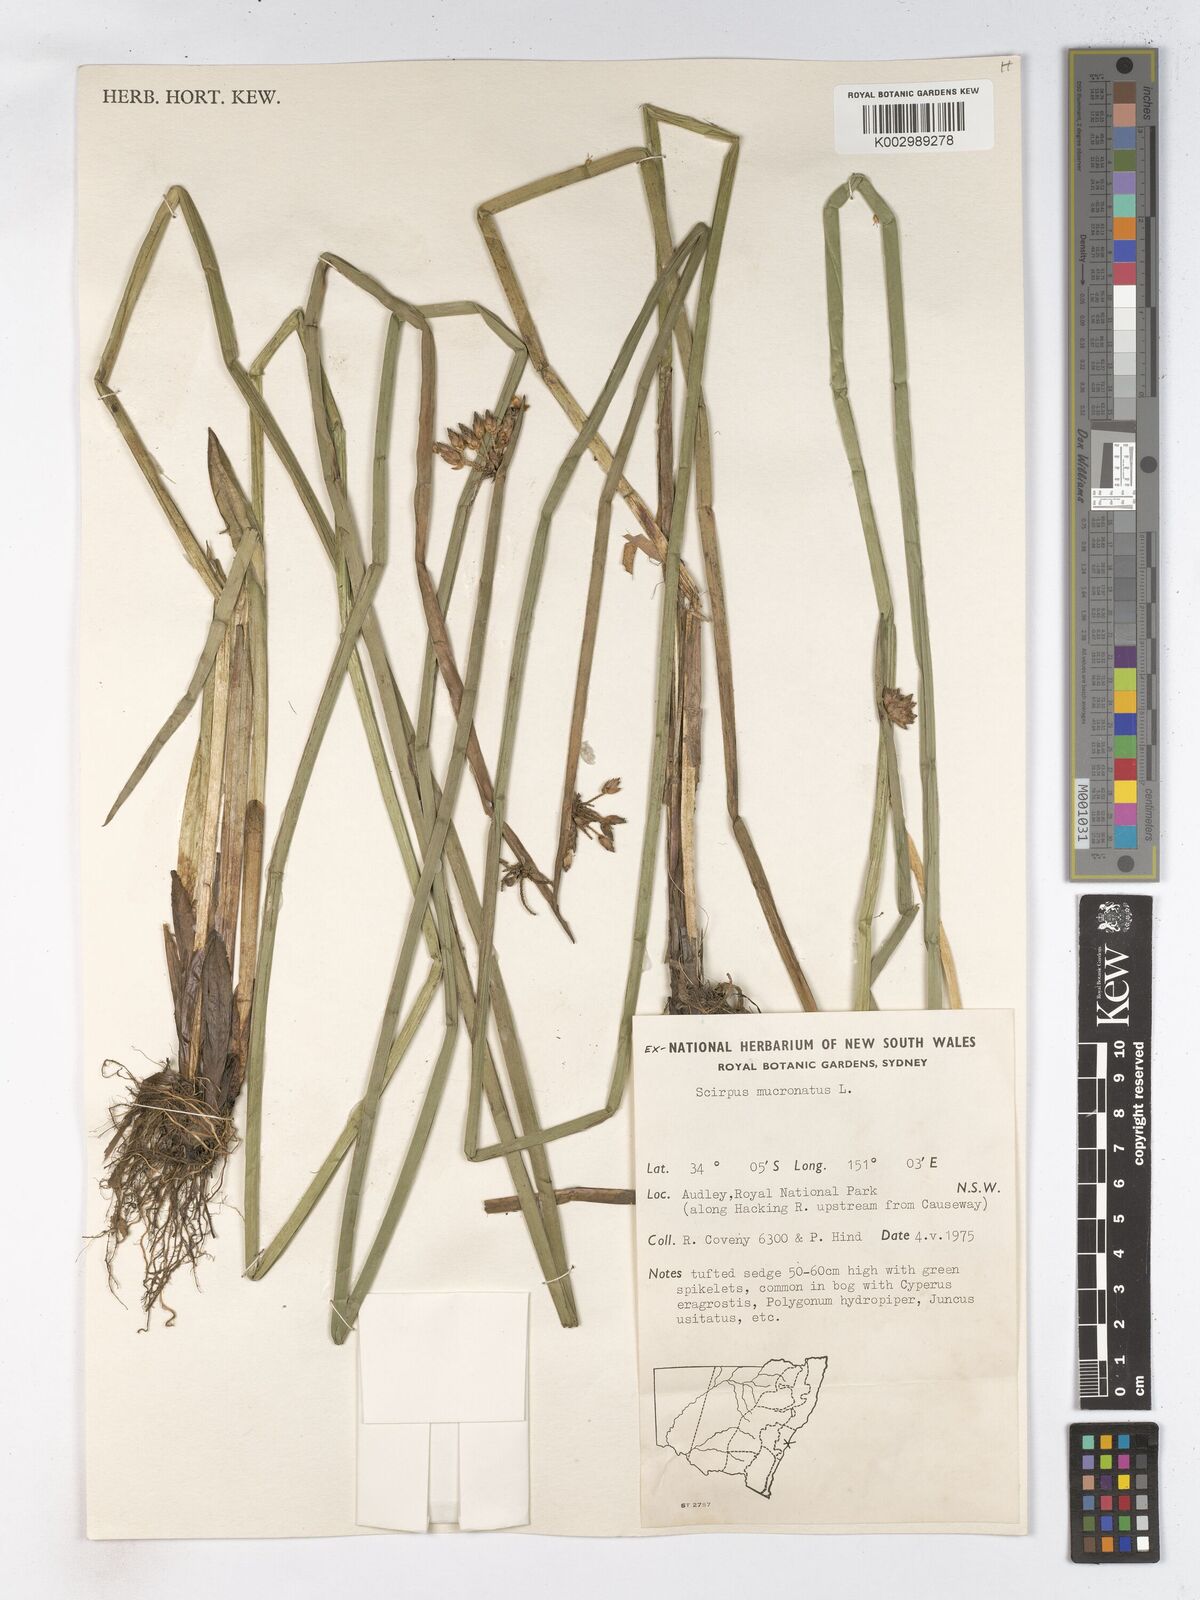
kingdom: Plantae
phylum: Tracheophyta
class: Liliopsida
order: Poales
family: Cyperaceae
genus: Schoenoplectiella
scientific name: Schoenoplectiella mucronata
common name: Bog bulrush
